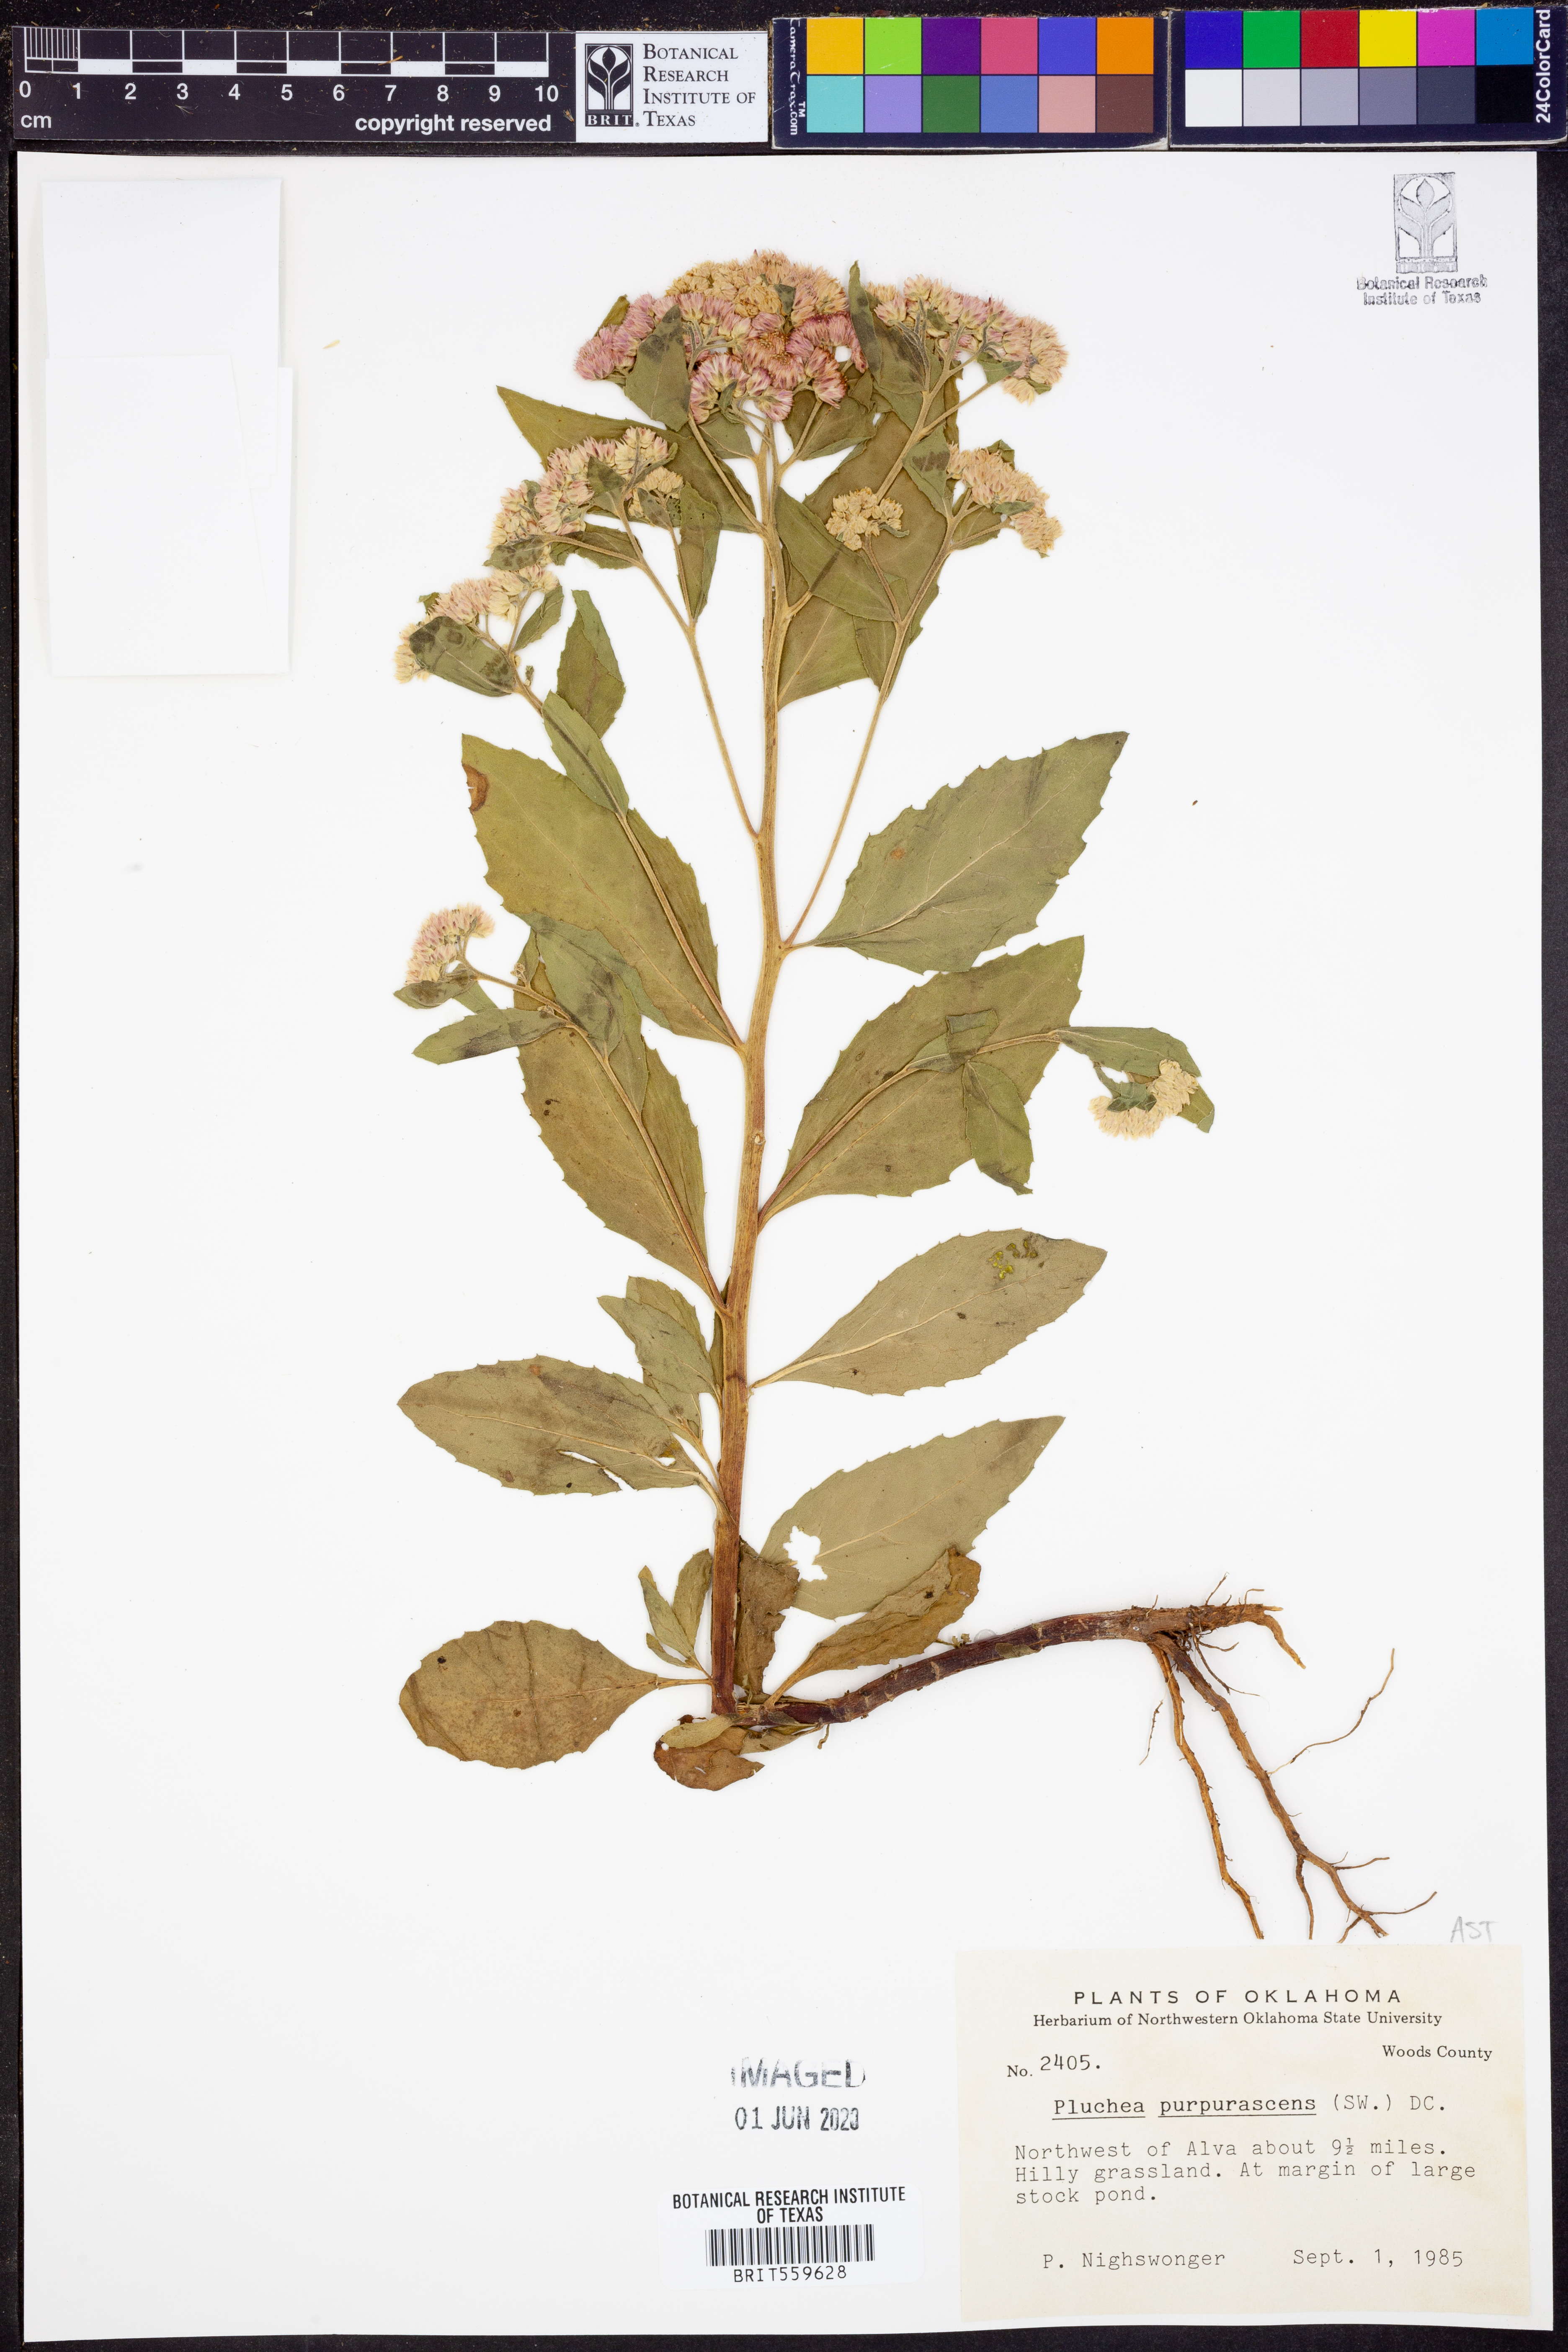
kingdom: Plantae
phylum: Tracheophyta
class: Magnoliopsida
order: Asterales
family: Asteraceae
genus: Pluchea
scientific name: Pluchea odorata
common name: Saltmarsh fleabane
